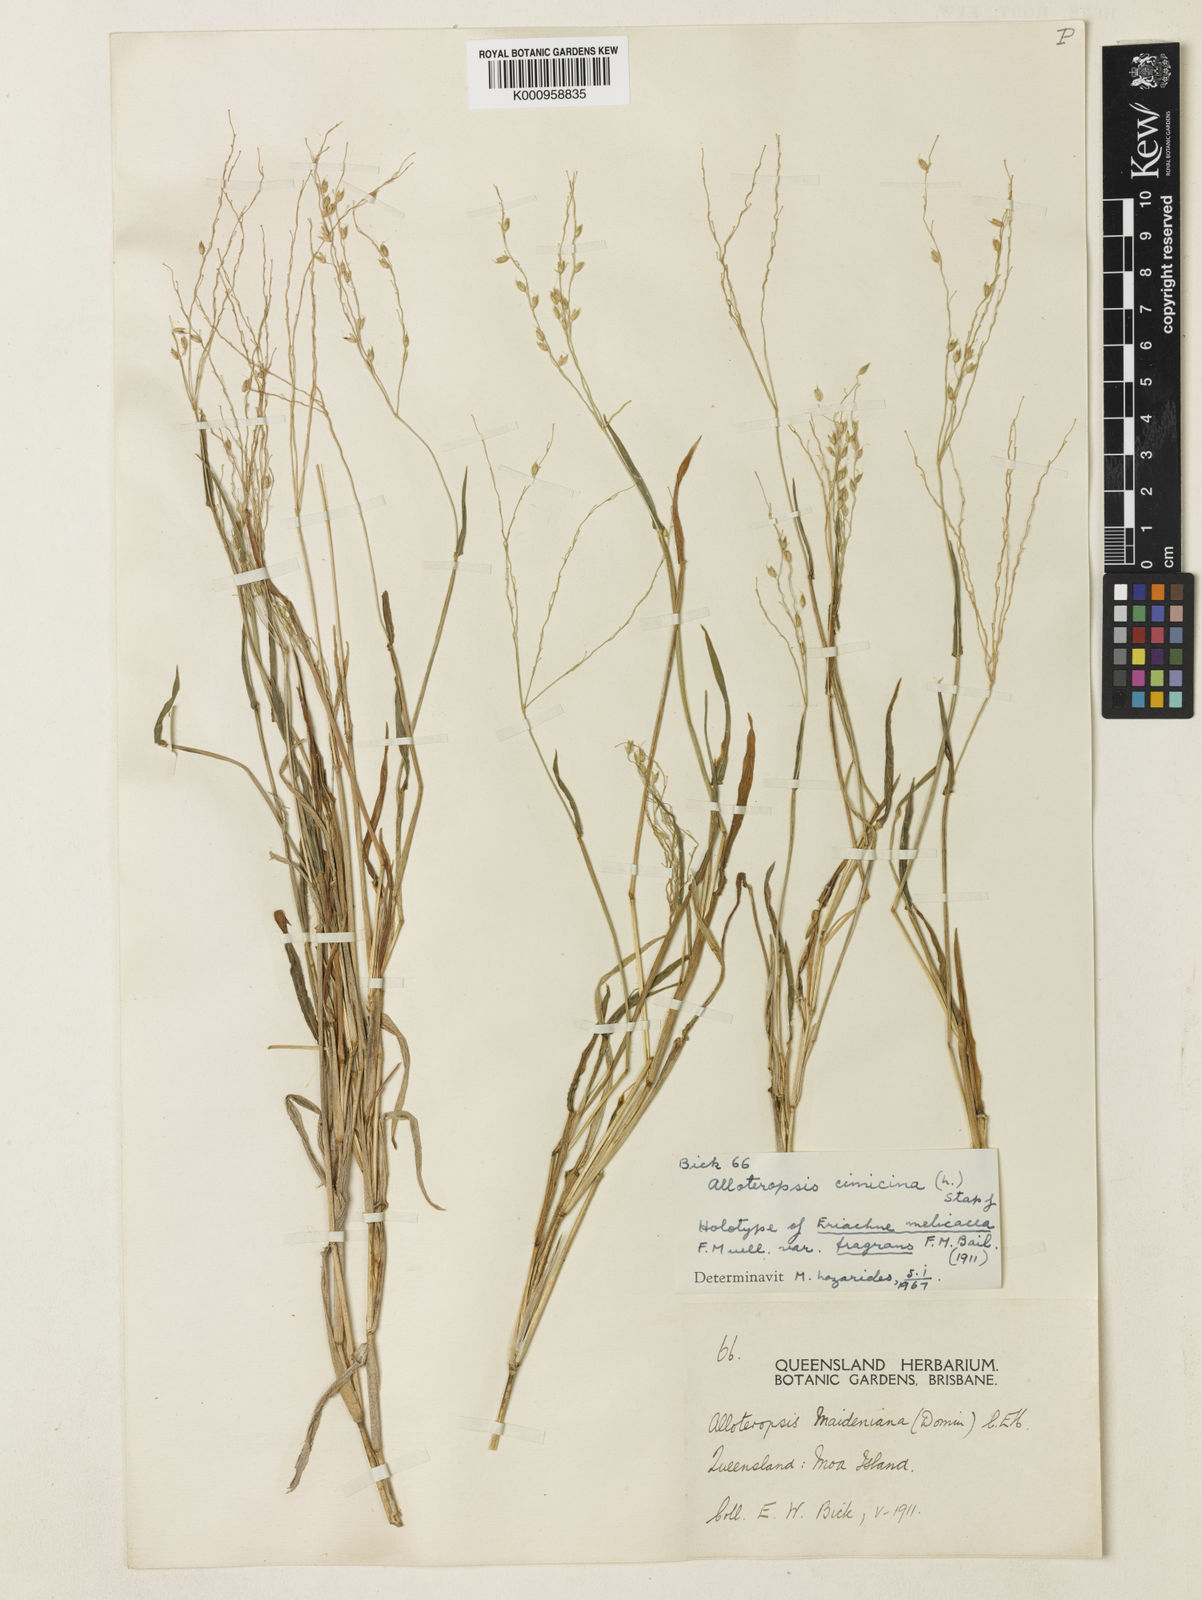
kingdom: Plantae
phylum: Tracheophyta
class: Liliopsida
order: Poales
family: Poaceae
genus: Alloteropsis
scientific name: Alloteropsis cimicina
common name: Summergrass
